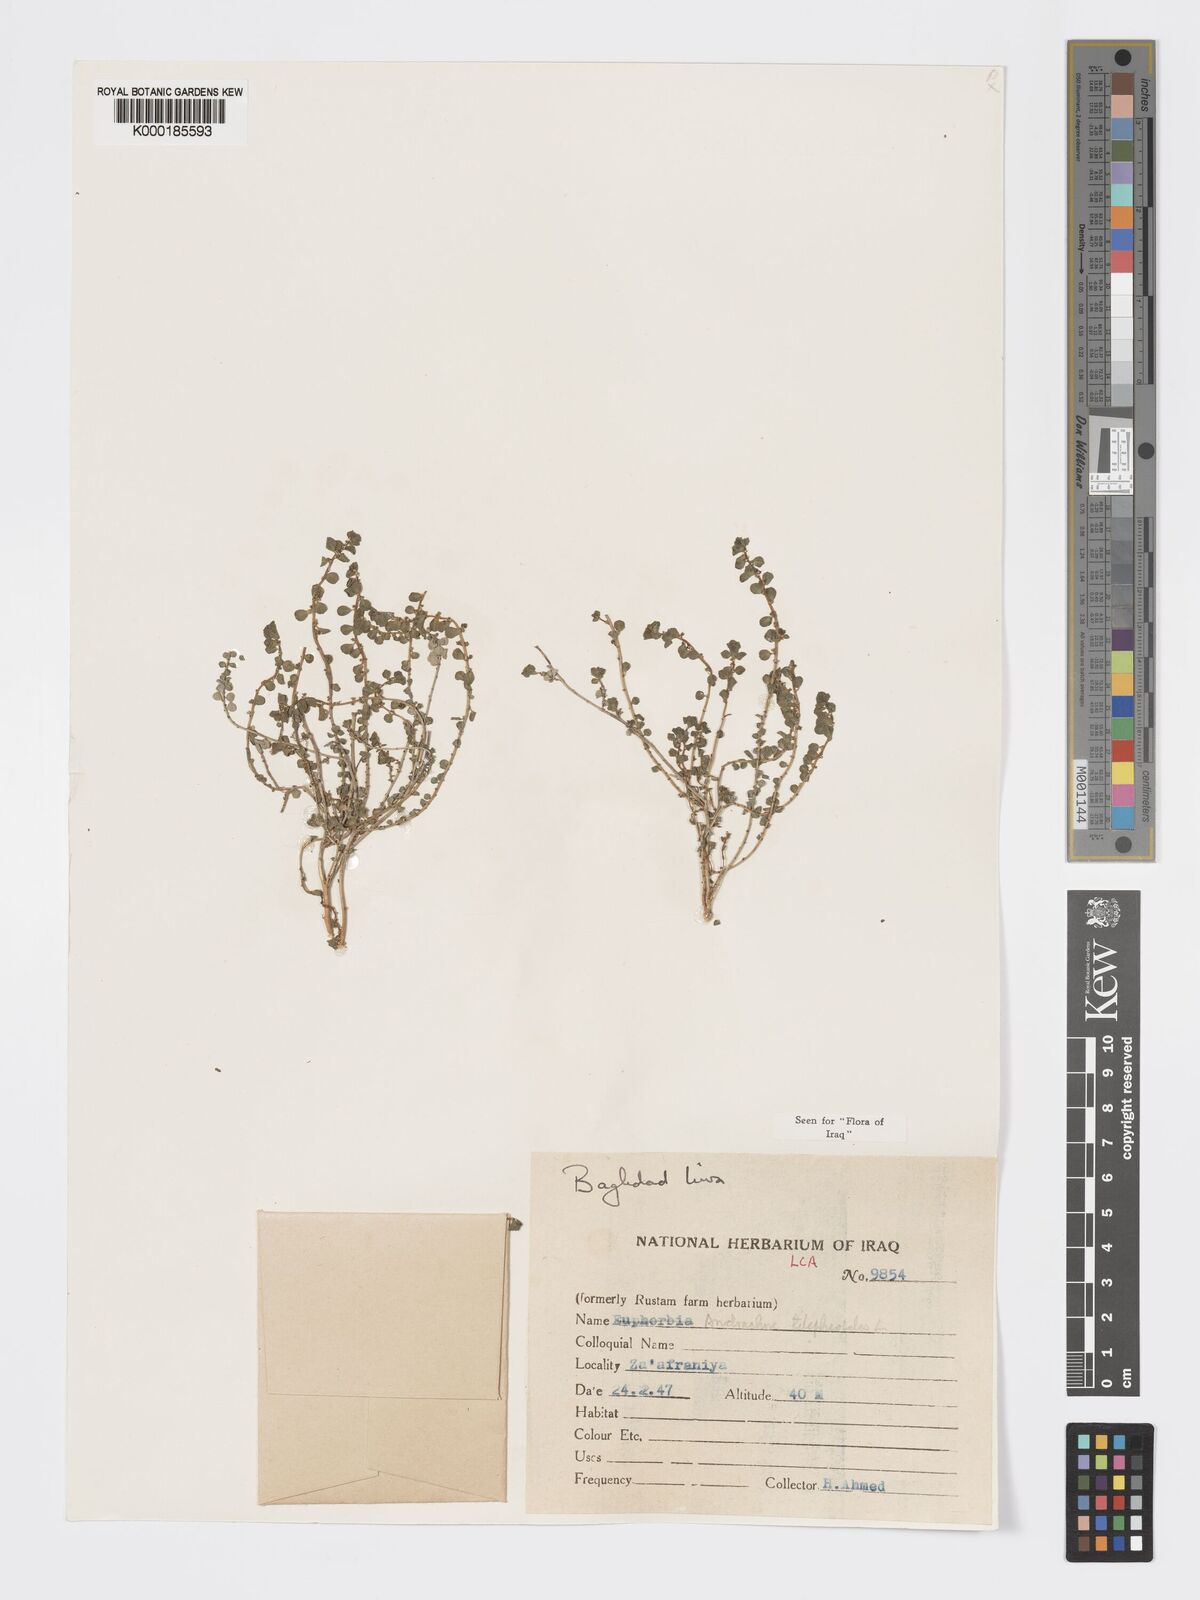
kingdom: Plantae
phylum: Tracheophyta
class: Magnoliopsida
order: Malpighiales
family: Phyllanthaceae
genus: Andrachne
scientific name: Andrachne telephioides
